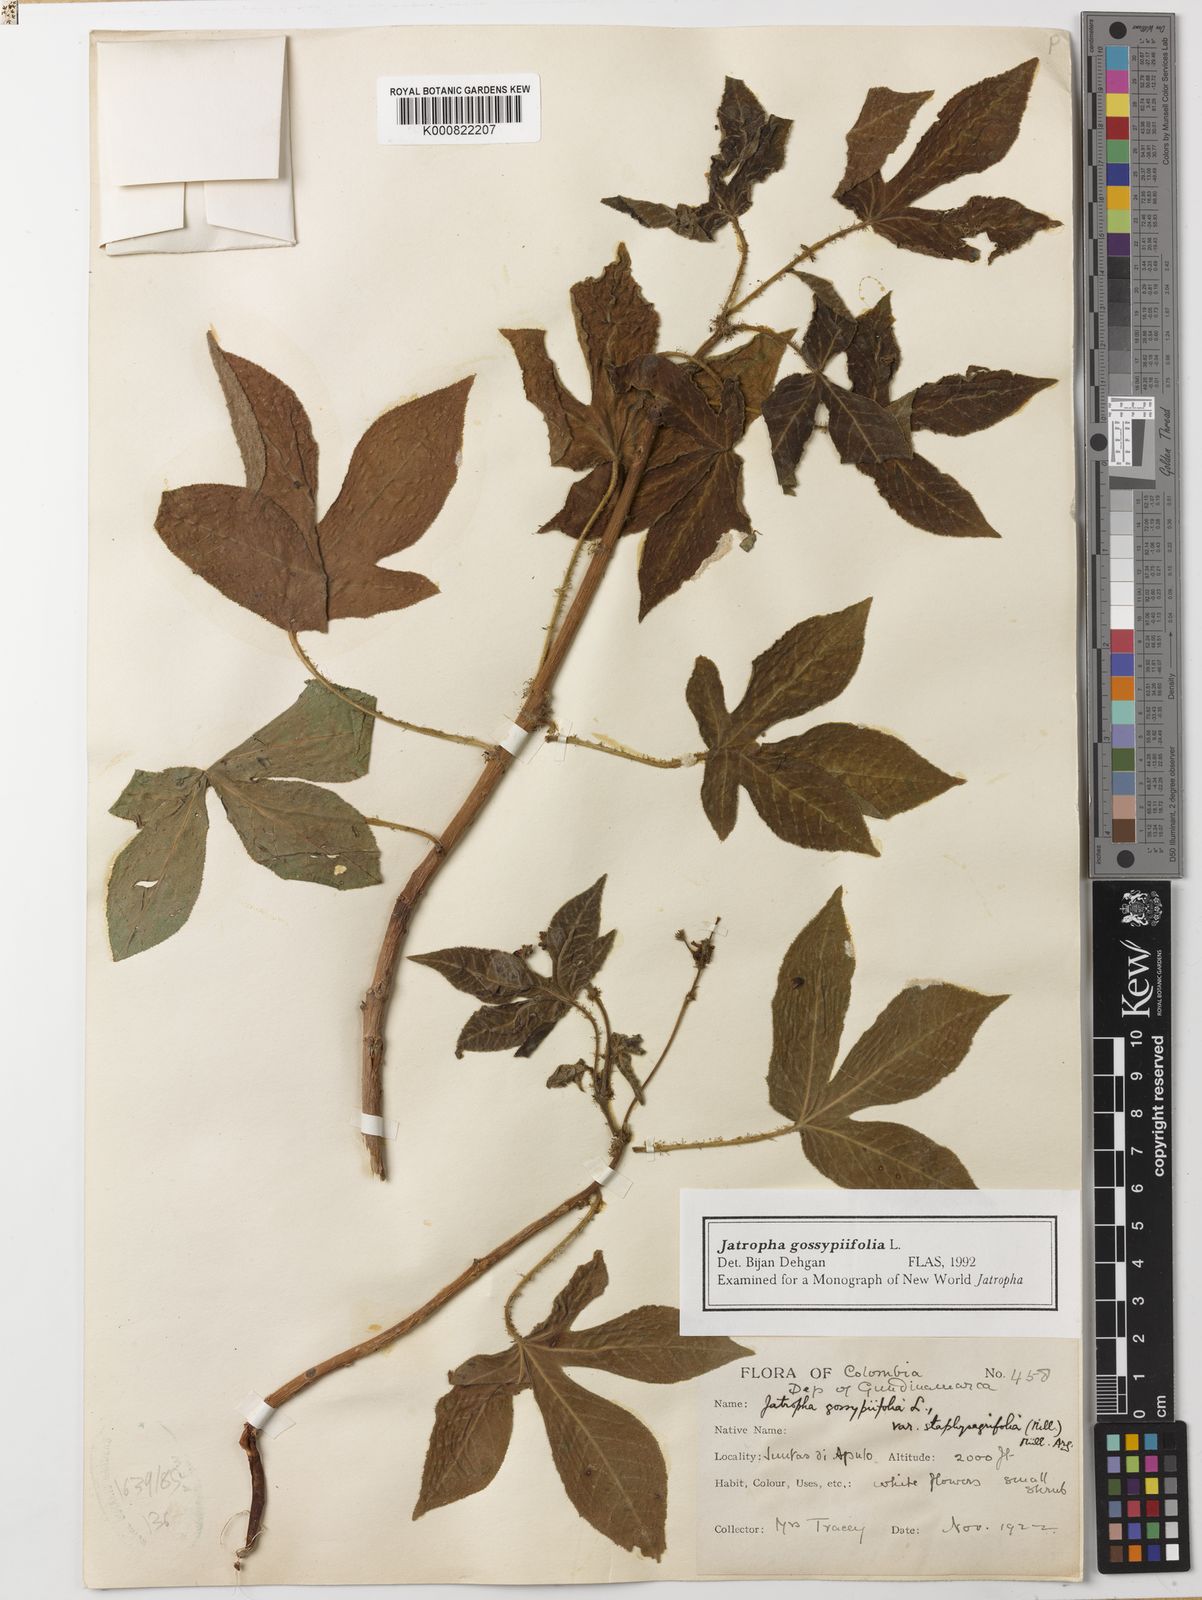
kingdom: Plantae
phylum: Tracheophyta
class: Magnoliopsida
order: Malpighiales
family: Euphorbiaceae
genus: Jatropha
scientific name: Jatropha gossypiifolia
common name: Bellyache bush
